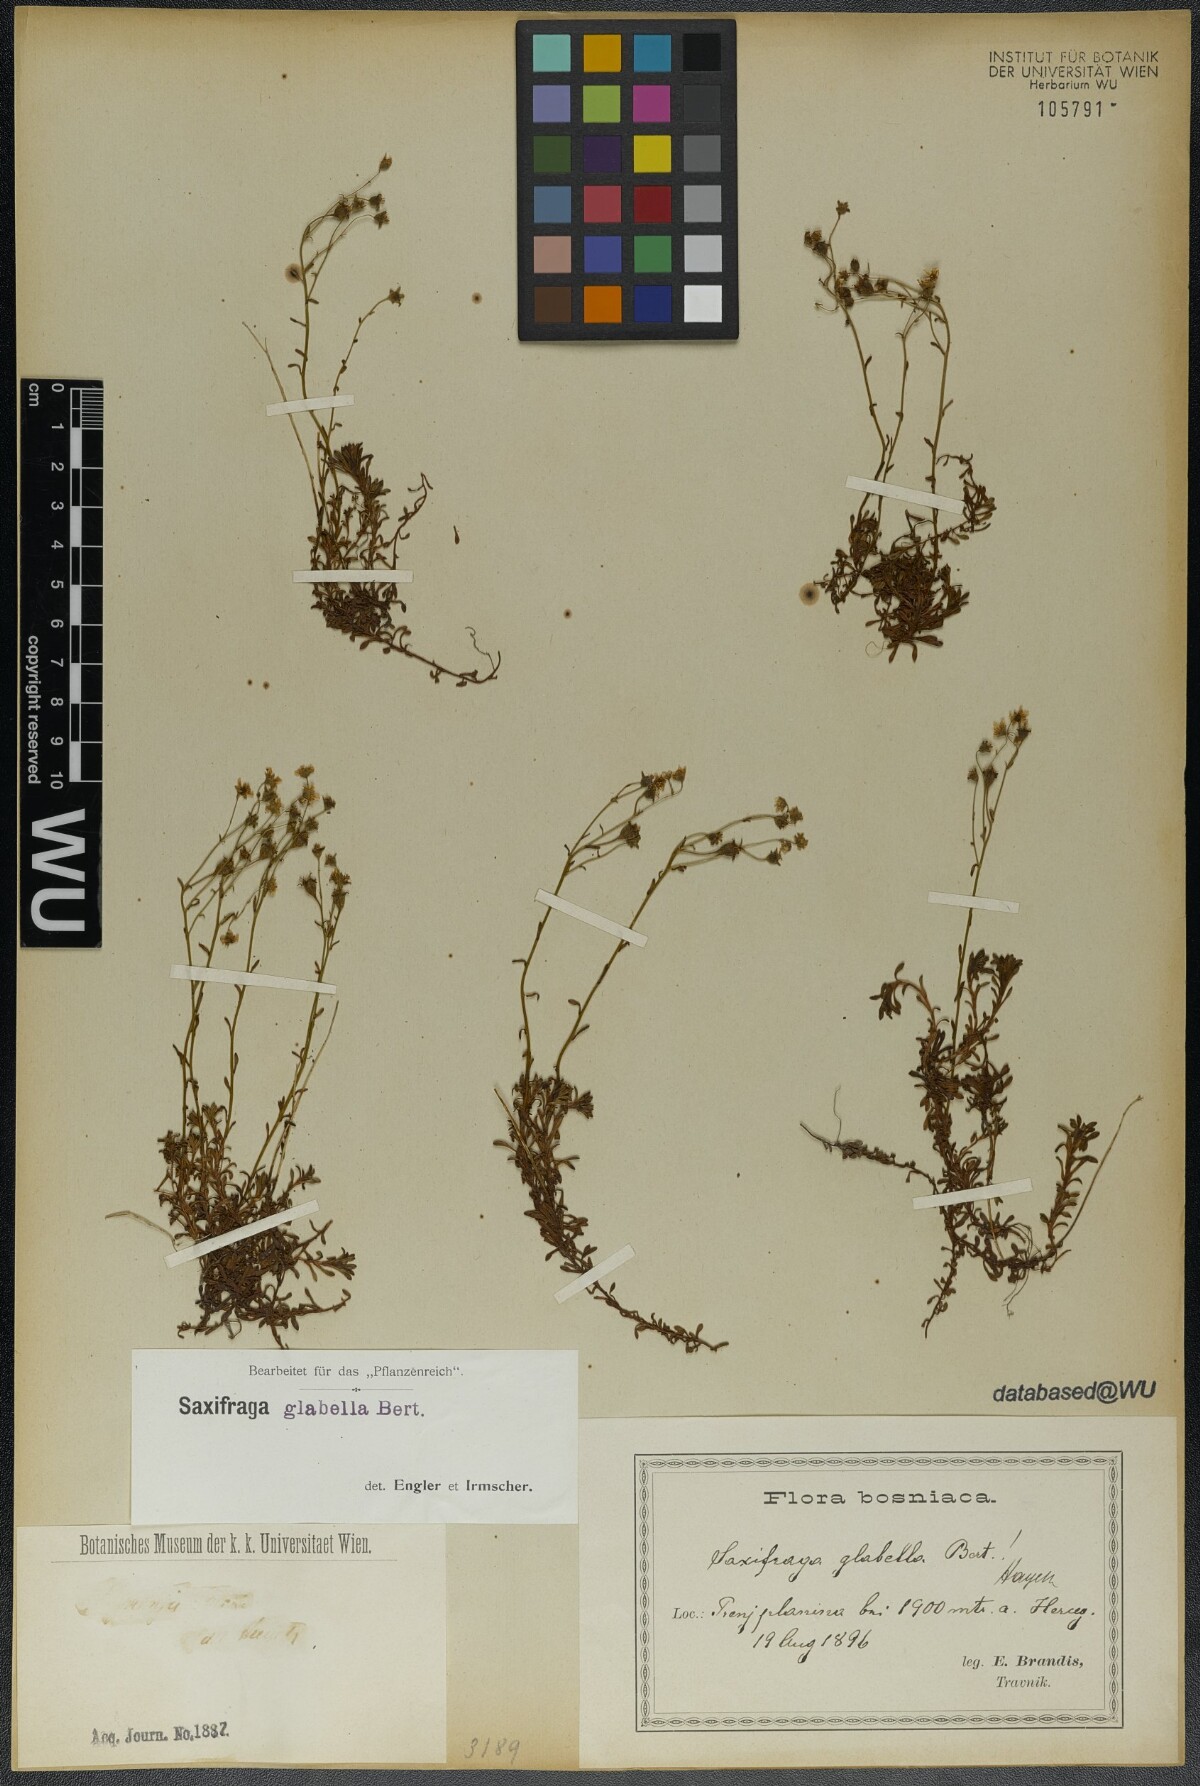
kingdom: Plantae
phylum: Tracheophyta
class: Magnoliopsida
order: Saxifragales
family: Saxifragaceae
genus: Saxifraga
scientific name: Saxifraga glabella
